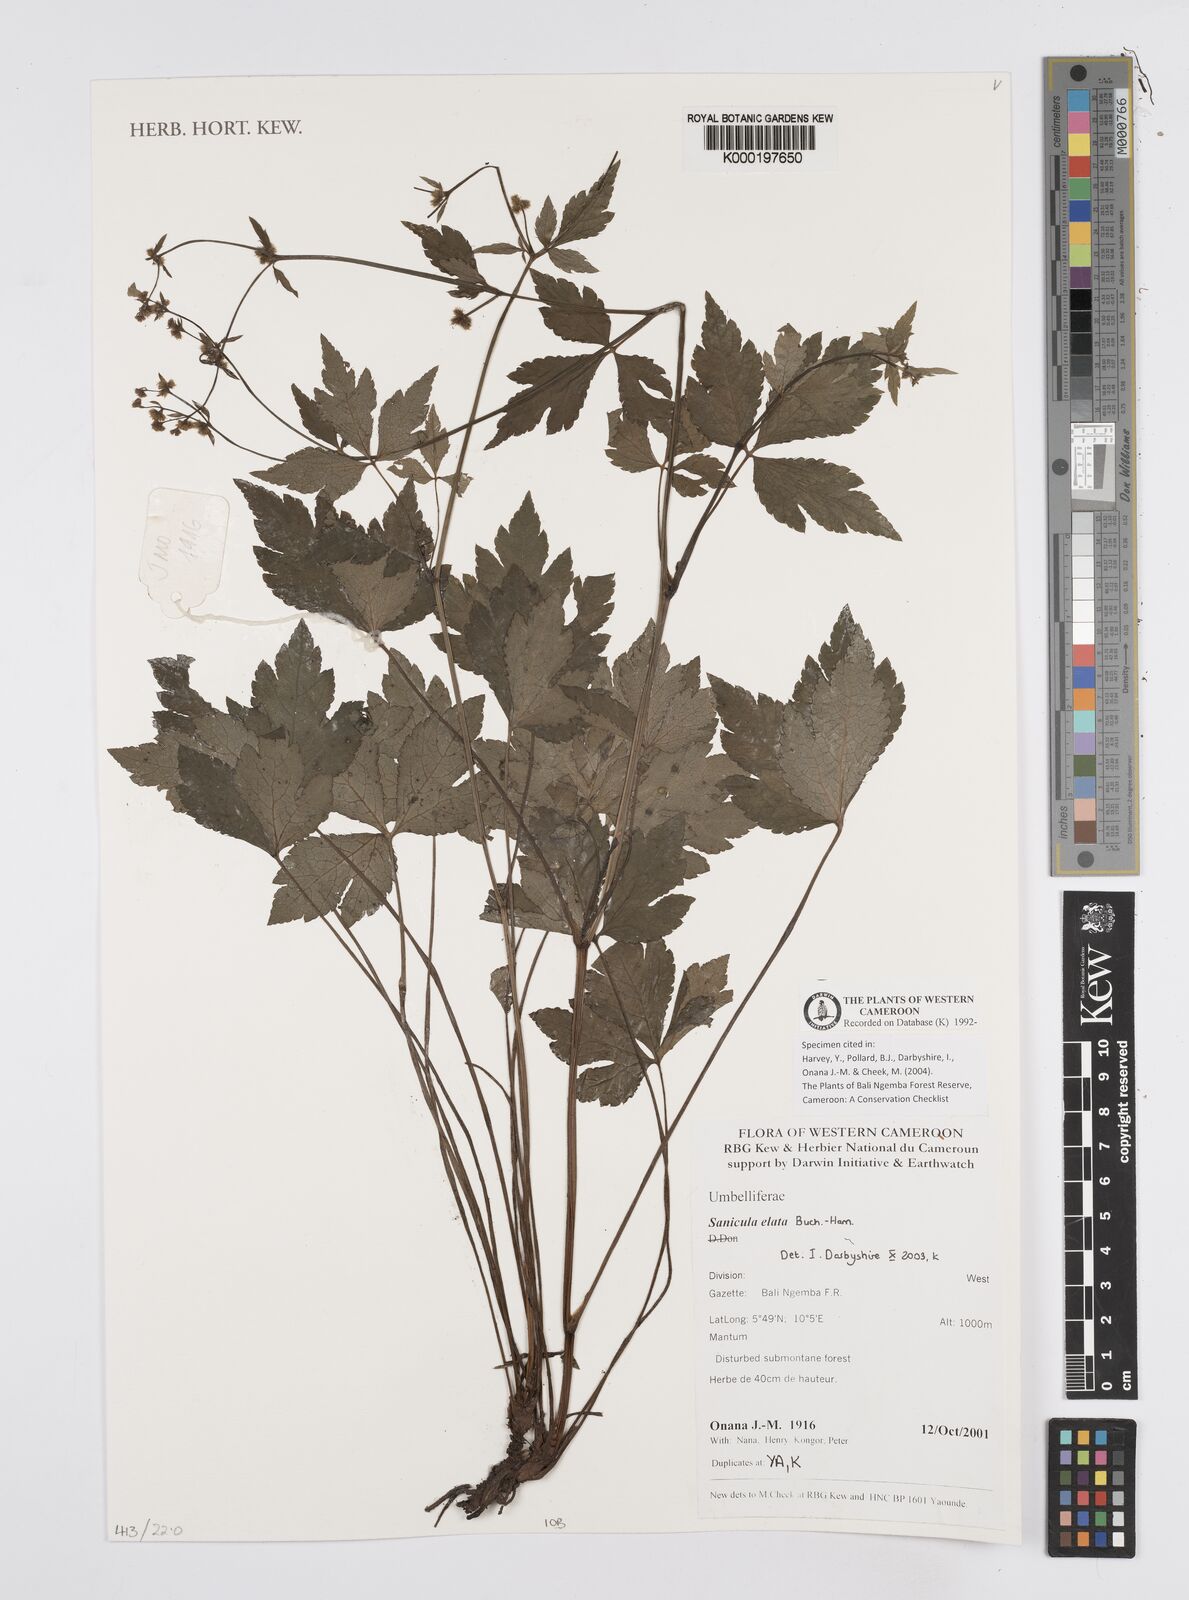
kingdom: Plantae
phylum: Tracheophyta
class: Magnoliopsida
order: Apiales
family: Apiaceae
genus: Sanicula
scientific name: Sanicula
